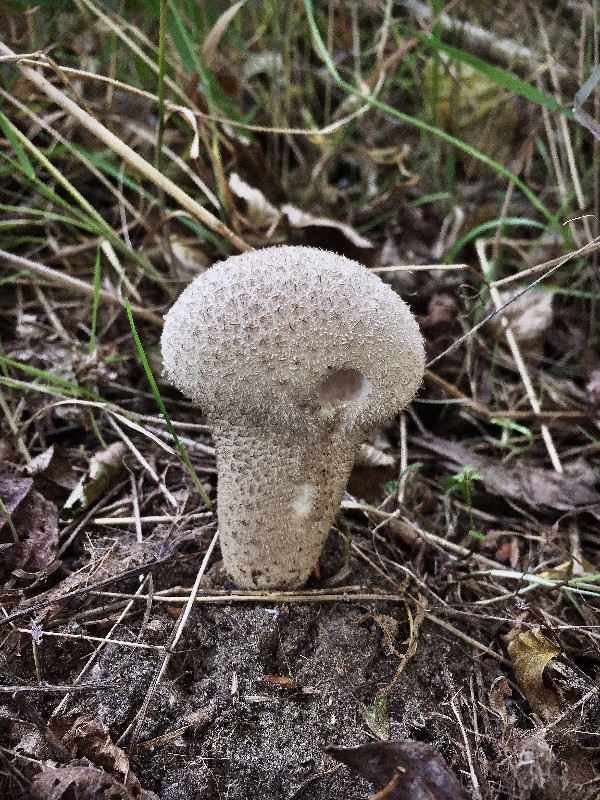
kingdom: Fungi
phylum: Basidiomycota
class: Agaricomycetes
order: Agaricales
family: Lycoperdaceae
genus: Lycoperdon
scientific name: Lycoperdon perlatum
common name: krystal-støvbold
